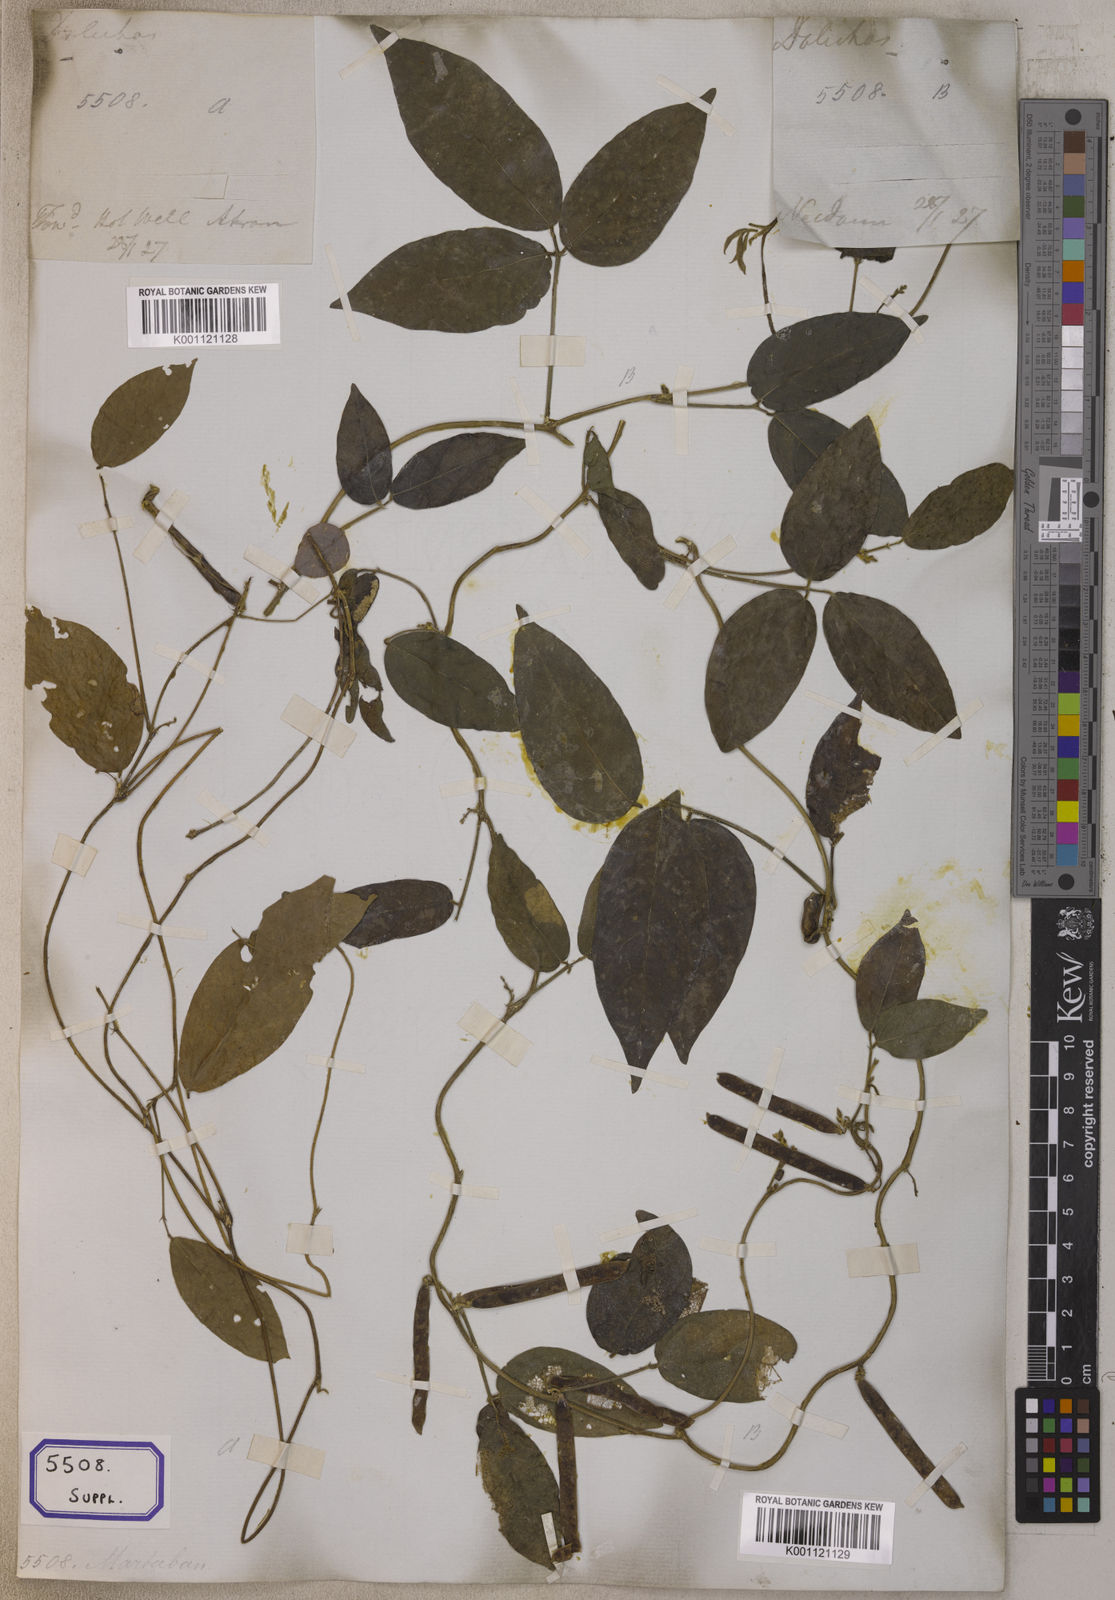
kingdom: Plantae
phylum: Tracheophyta
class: Magnoliopsida
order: Fabales
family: Fabaceae
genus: Teramnus
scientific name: Teramnus labialis
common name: Blue wiss
